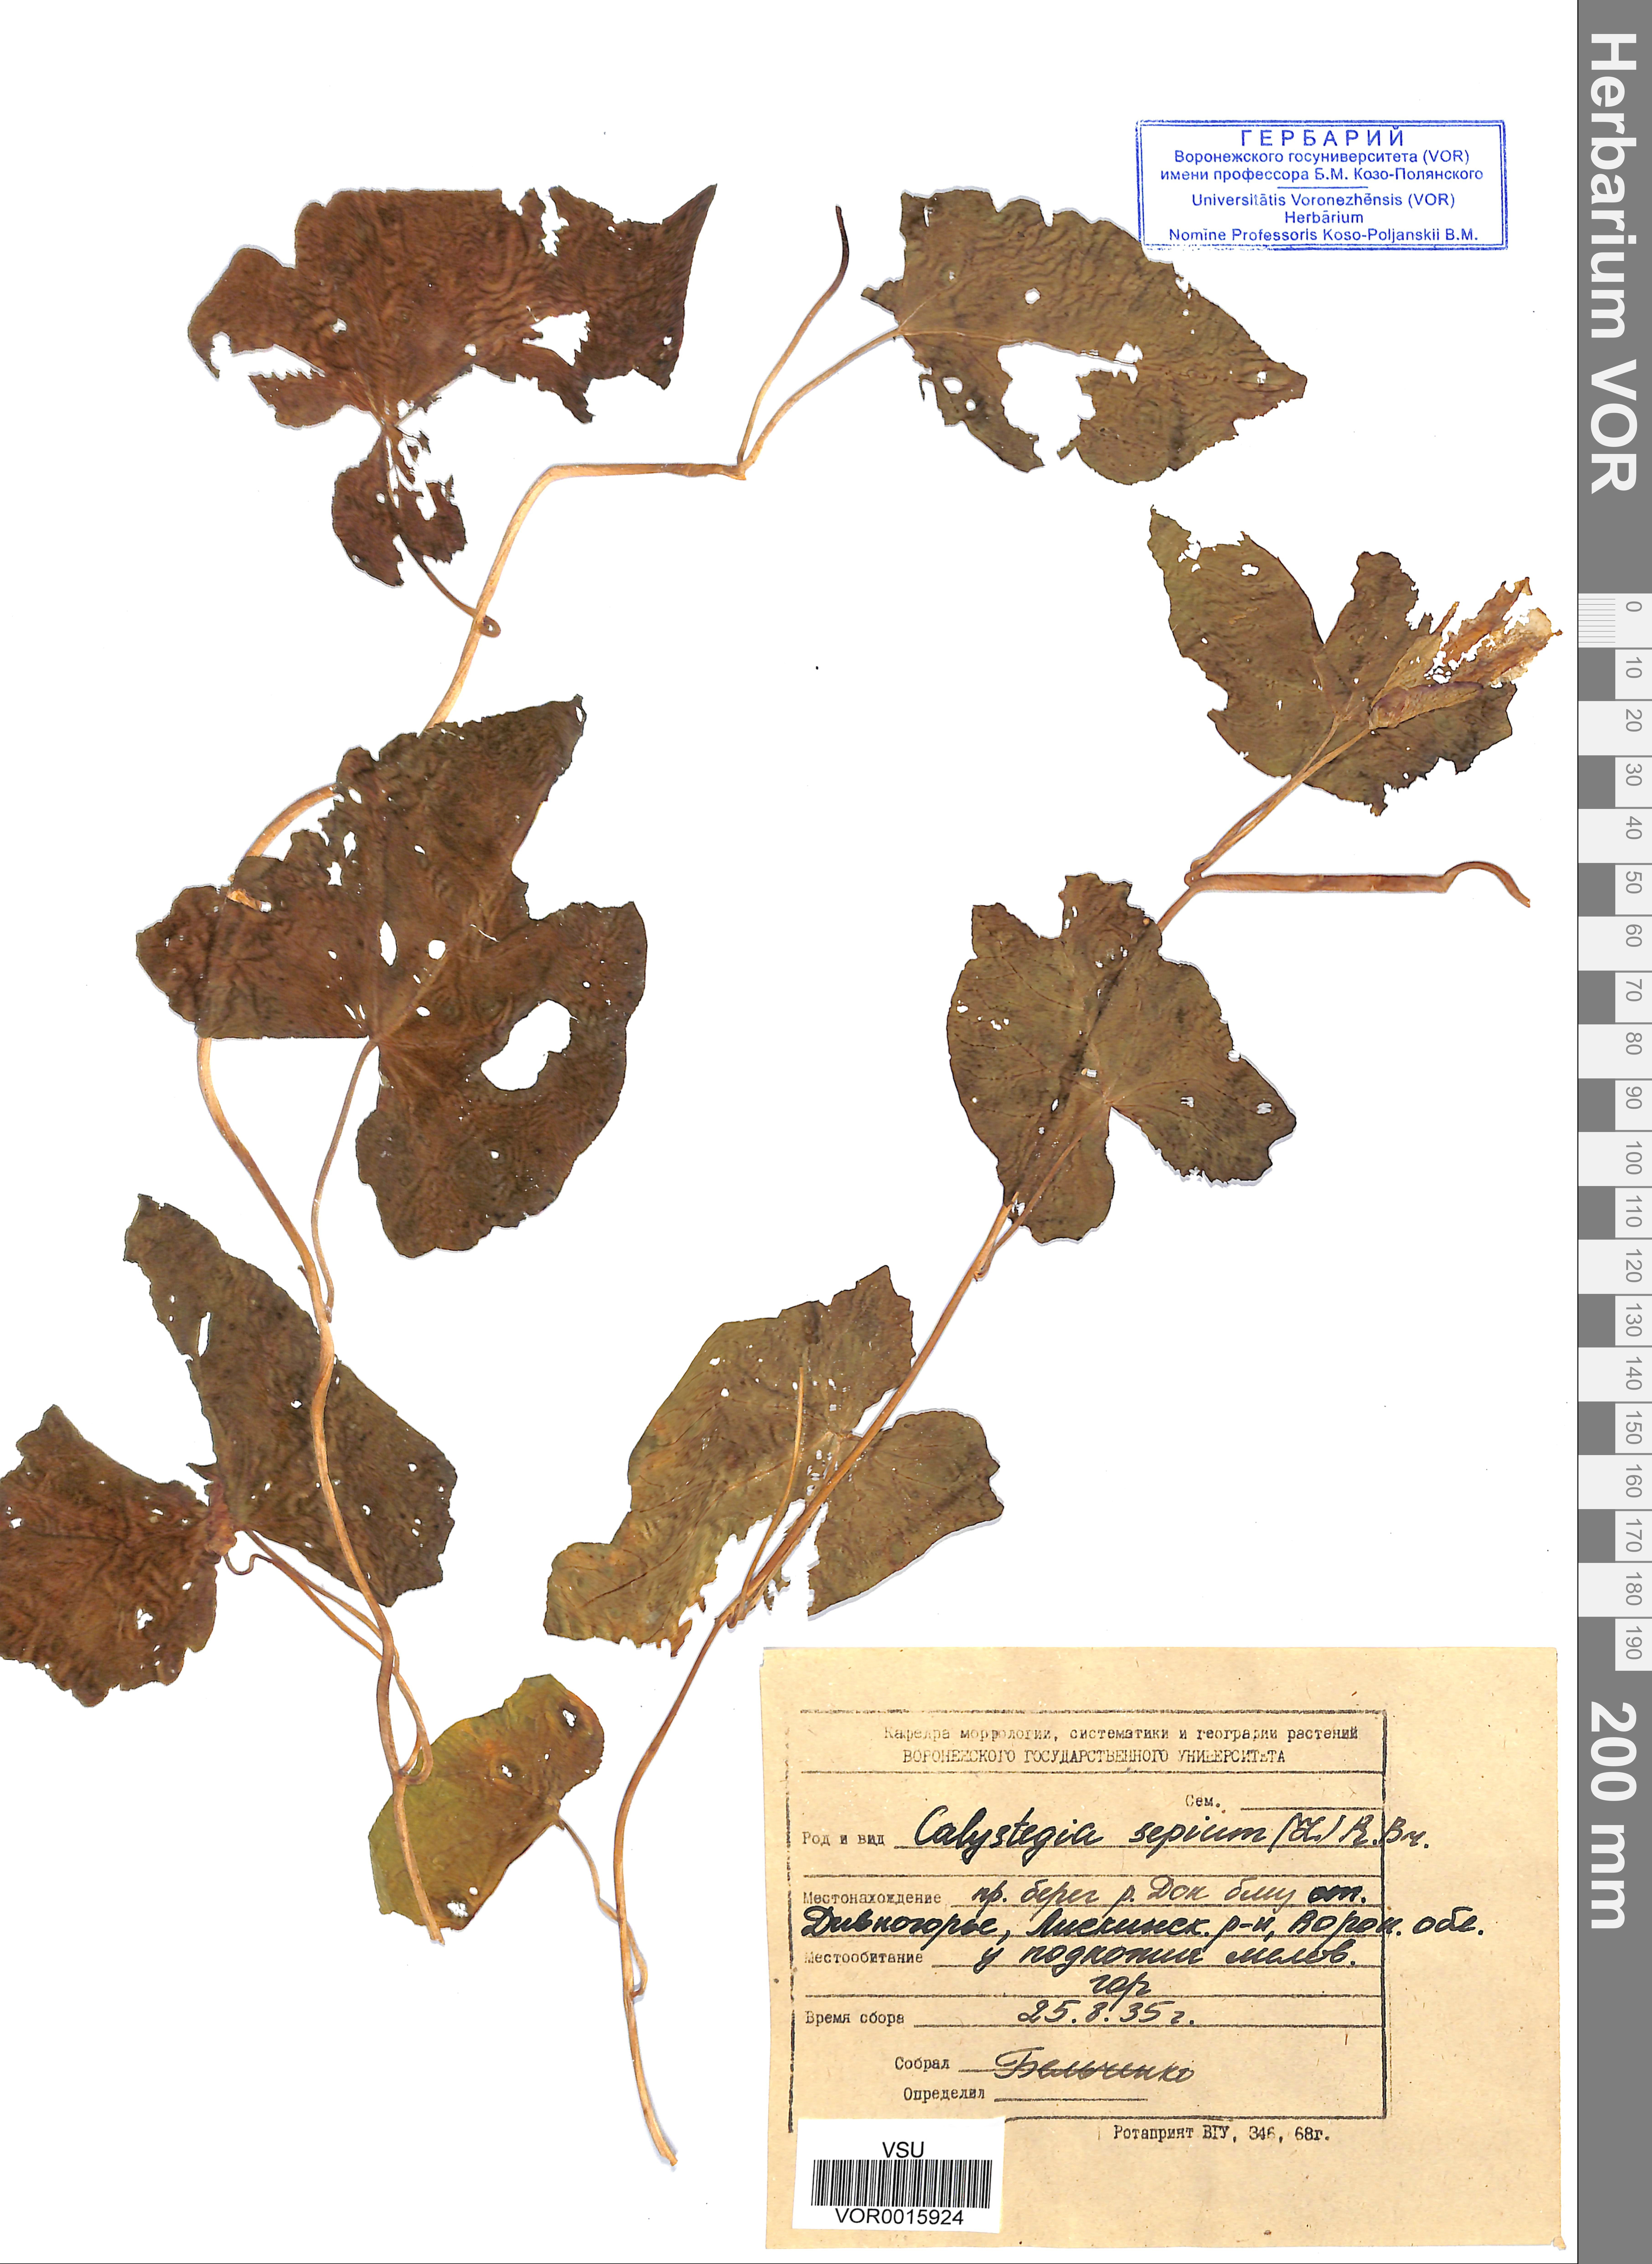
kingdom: Plantae
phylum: Tracheophyta
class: Magnoliopsida
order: Solanales
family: Convolvulaceae
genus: Calystegia
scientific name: Calystegia sepium
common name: Hedge bindweed
